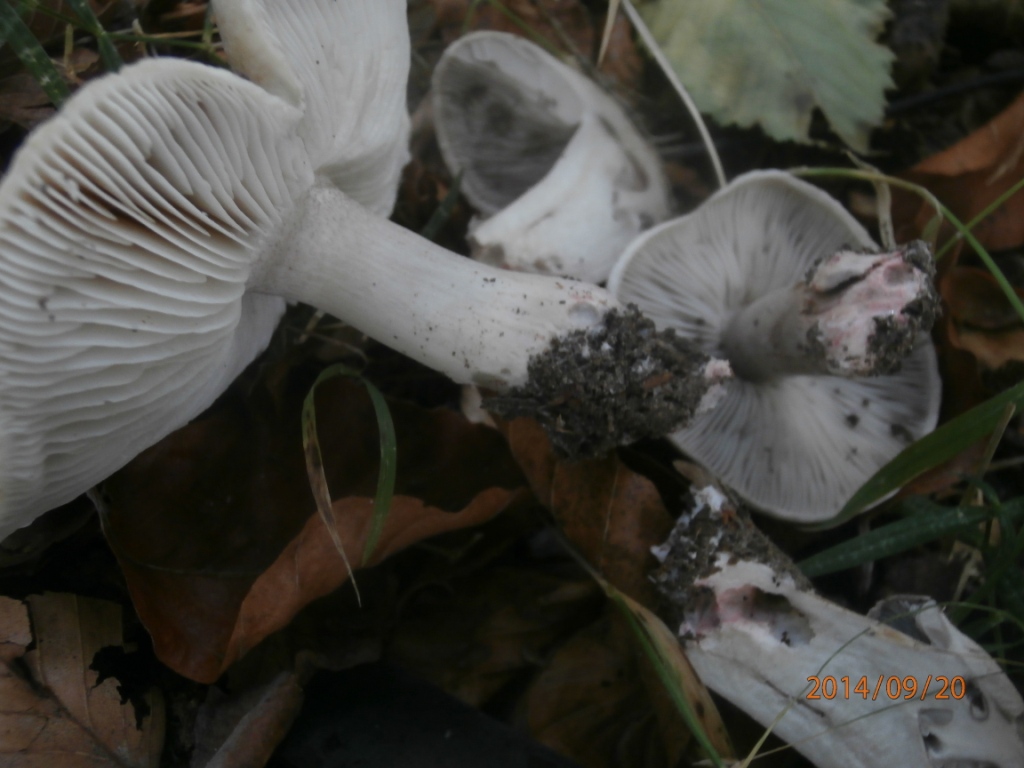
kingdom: Fungi
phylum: Basidiomycota
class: Agaricomycetes
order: Agaricales
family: Tricholomataceae
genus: Tricholoma
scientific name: Tricholoma basirubens
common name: rødfodet ridderhat
